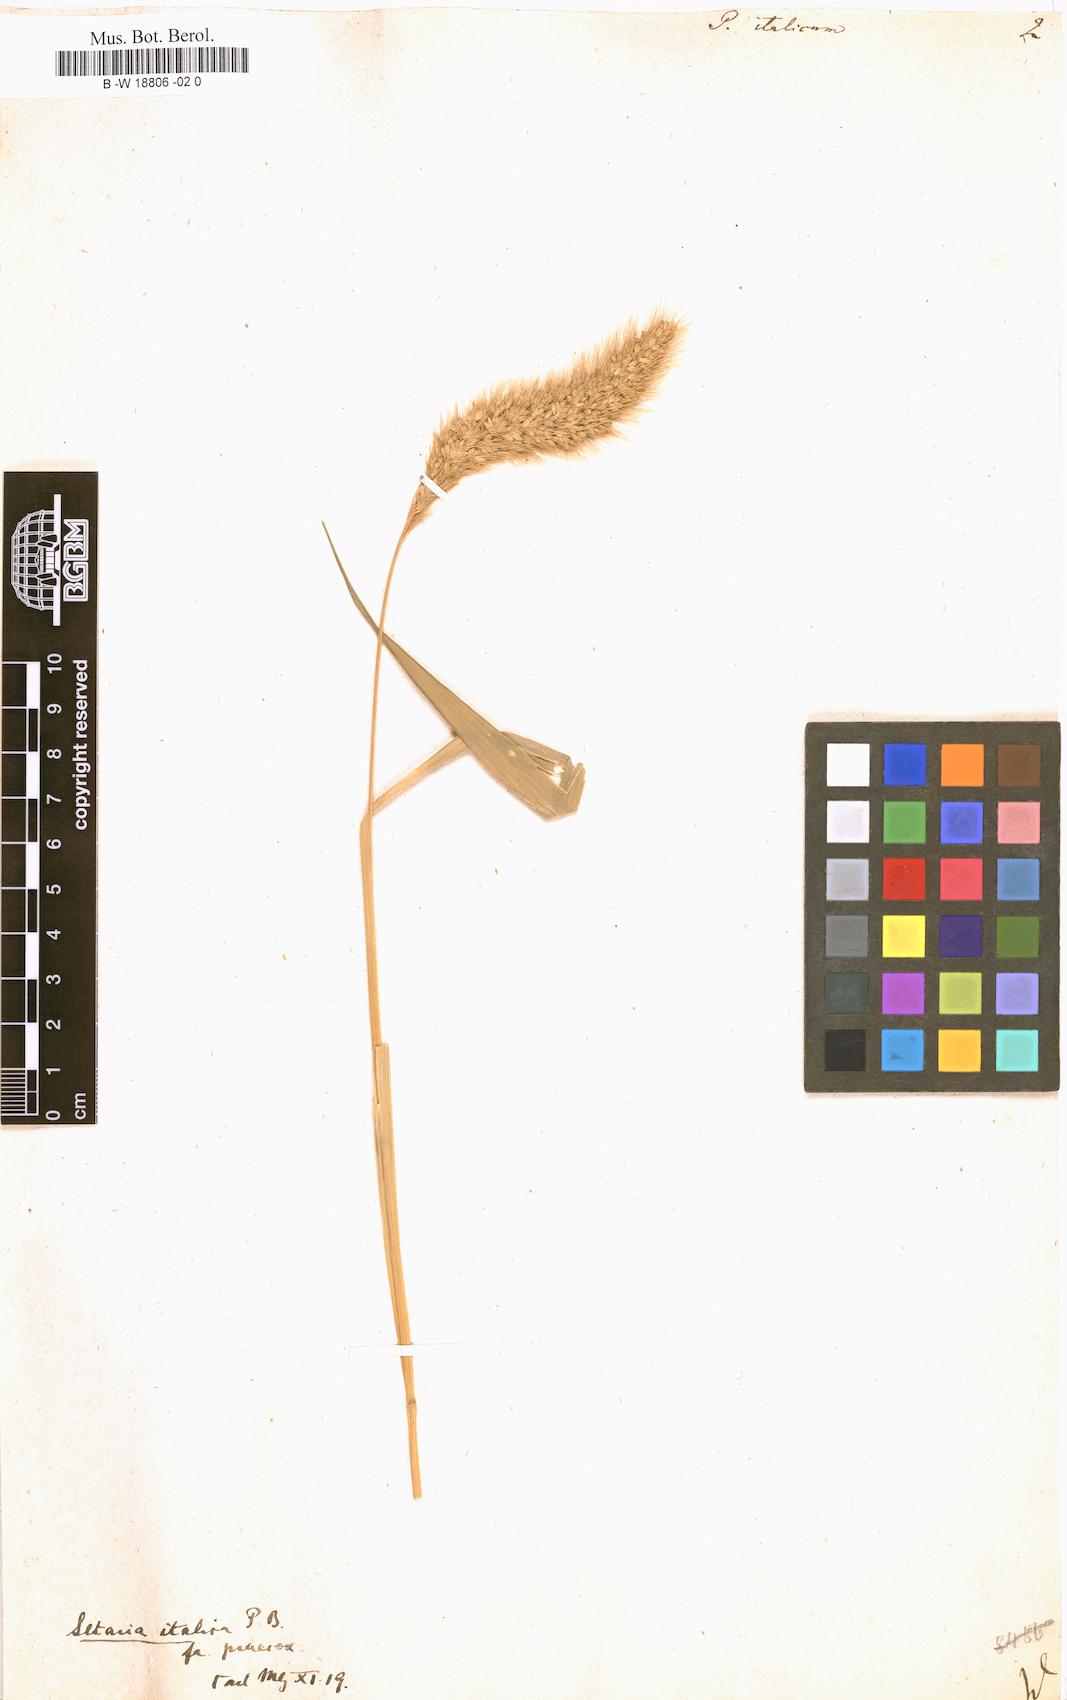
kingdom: Plantae
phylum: Tracheophyta
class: Liliopsida
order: Poales
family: Poaceae
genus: Setaria
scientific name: Setaria italica
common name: Foxtail bristle-grass
